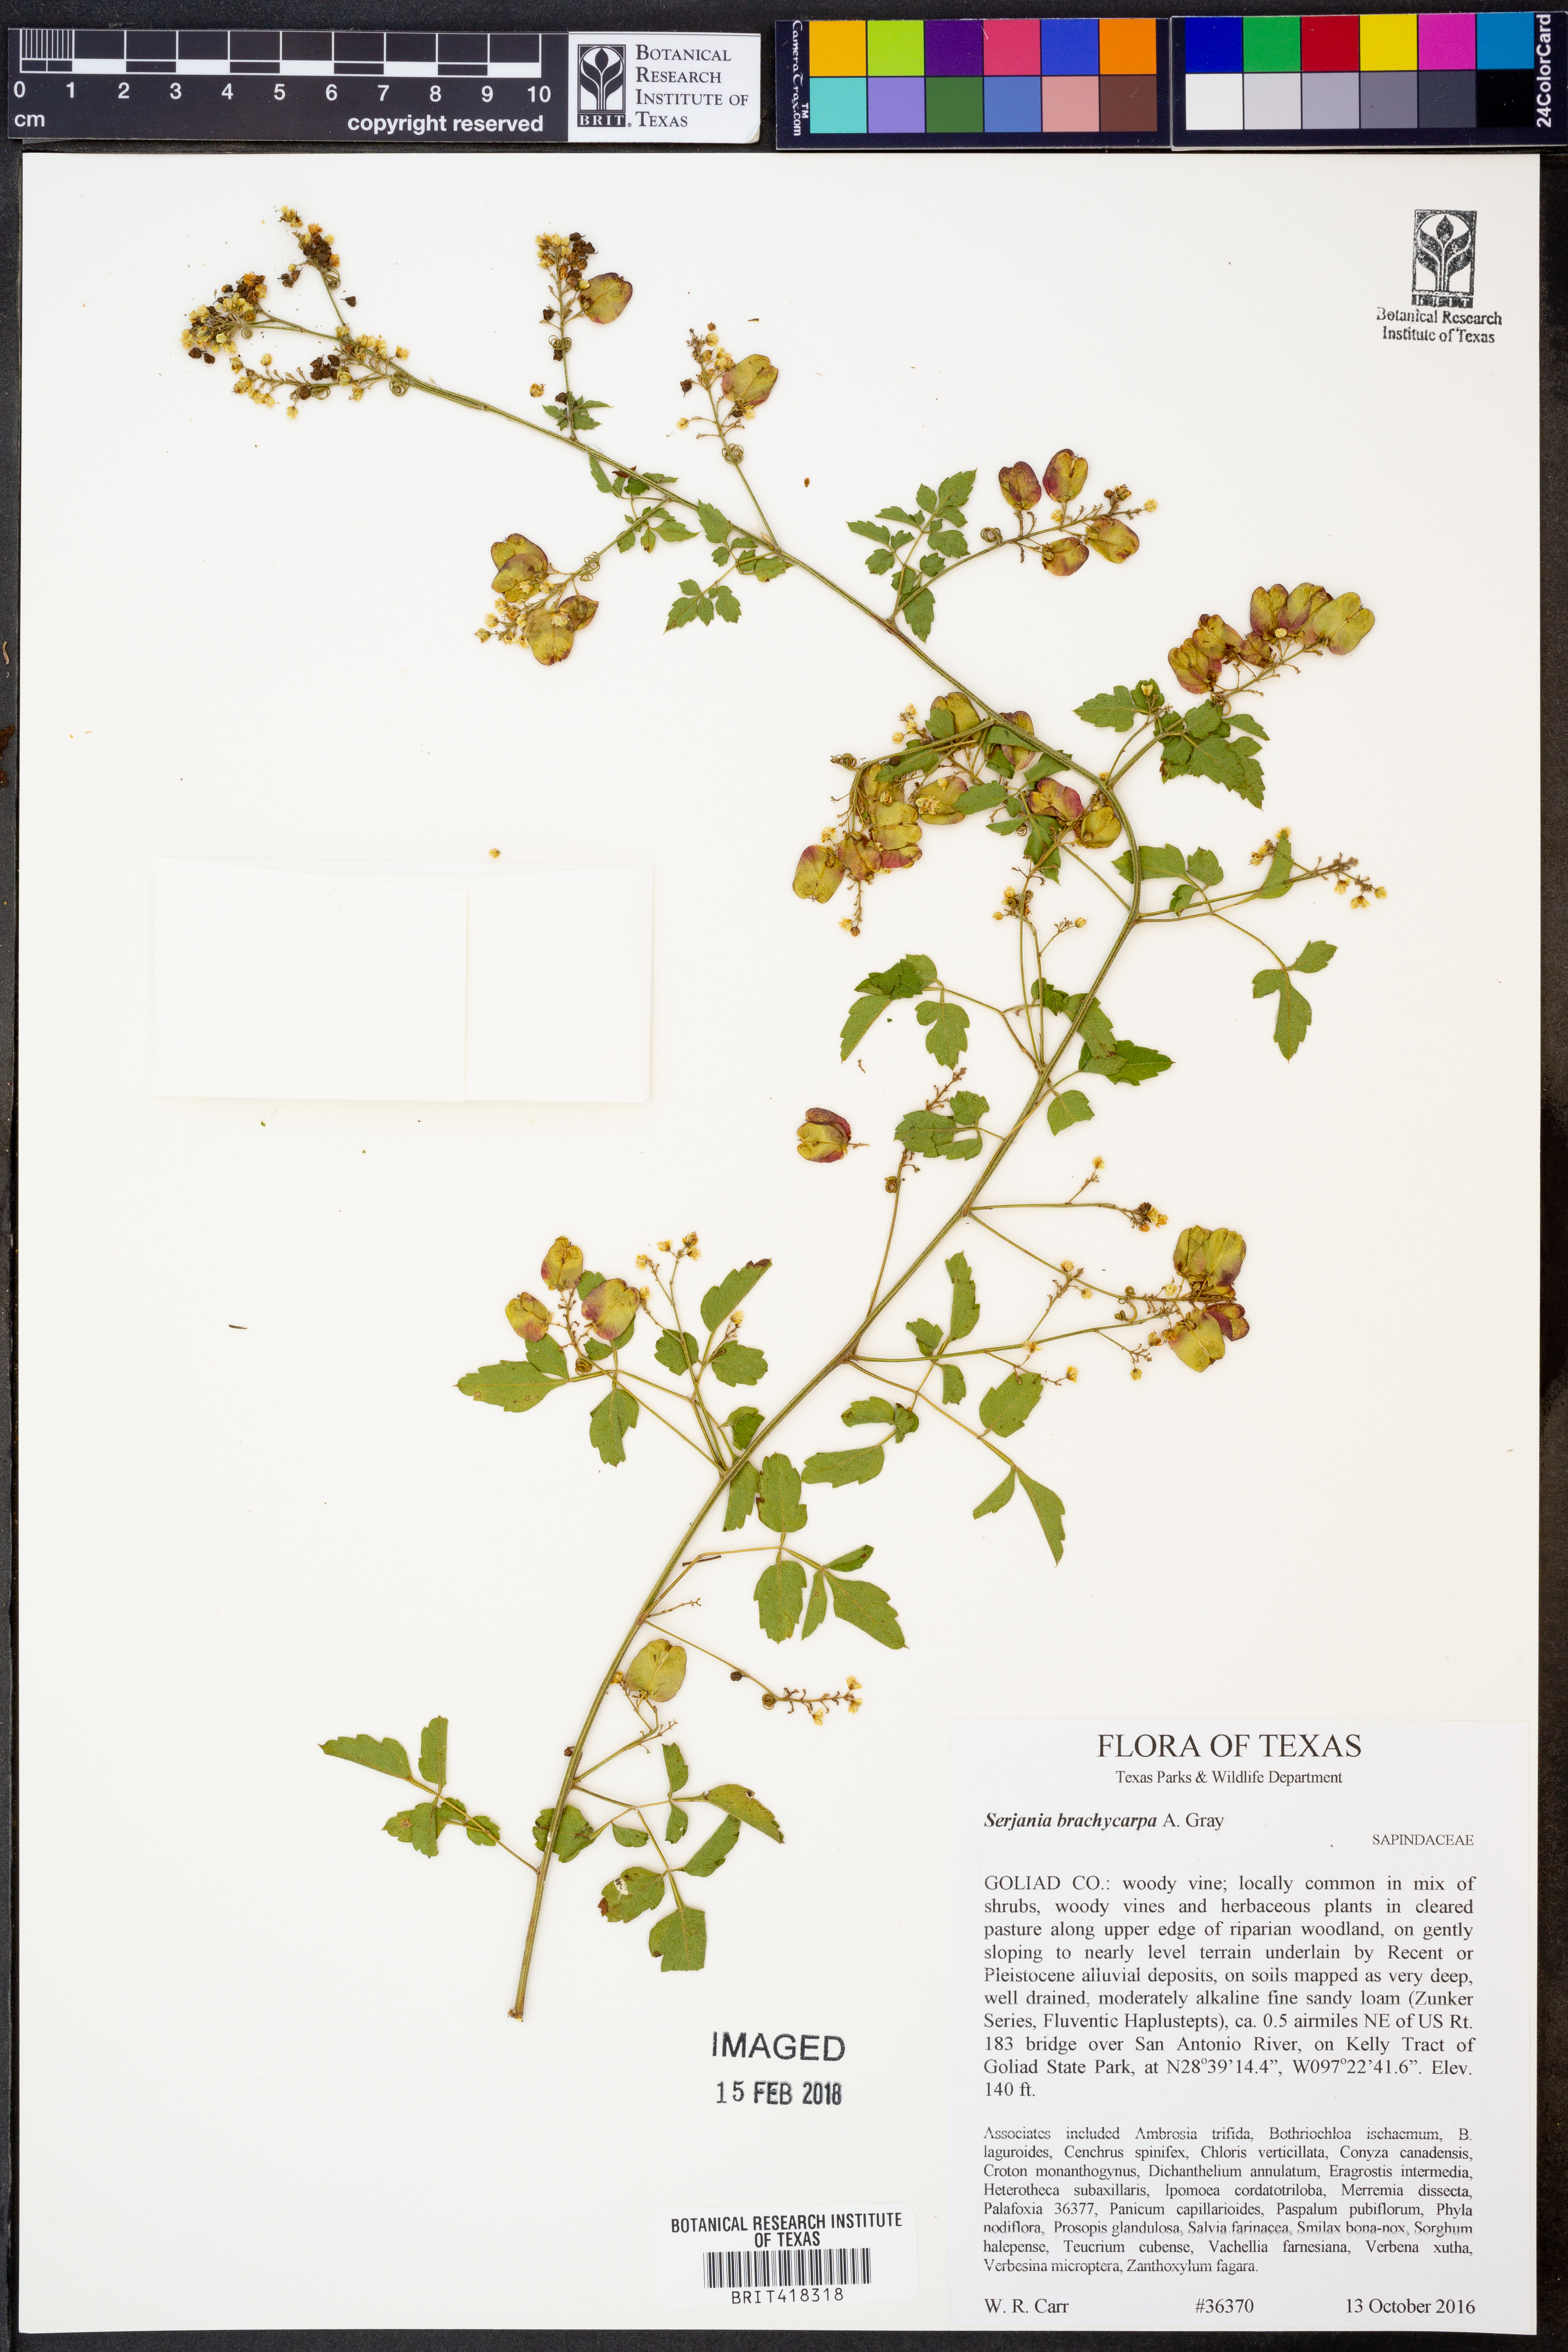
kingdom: Plantae
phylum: Tracheophyta
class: Magnoliopsida
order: Sapindales
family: Sapindaceae
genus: Serjania
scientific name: Serjania brachycarpa
